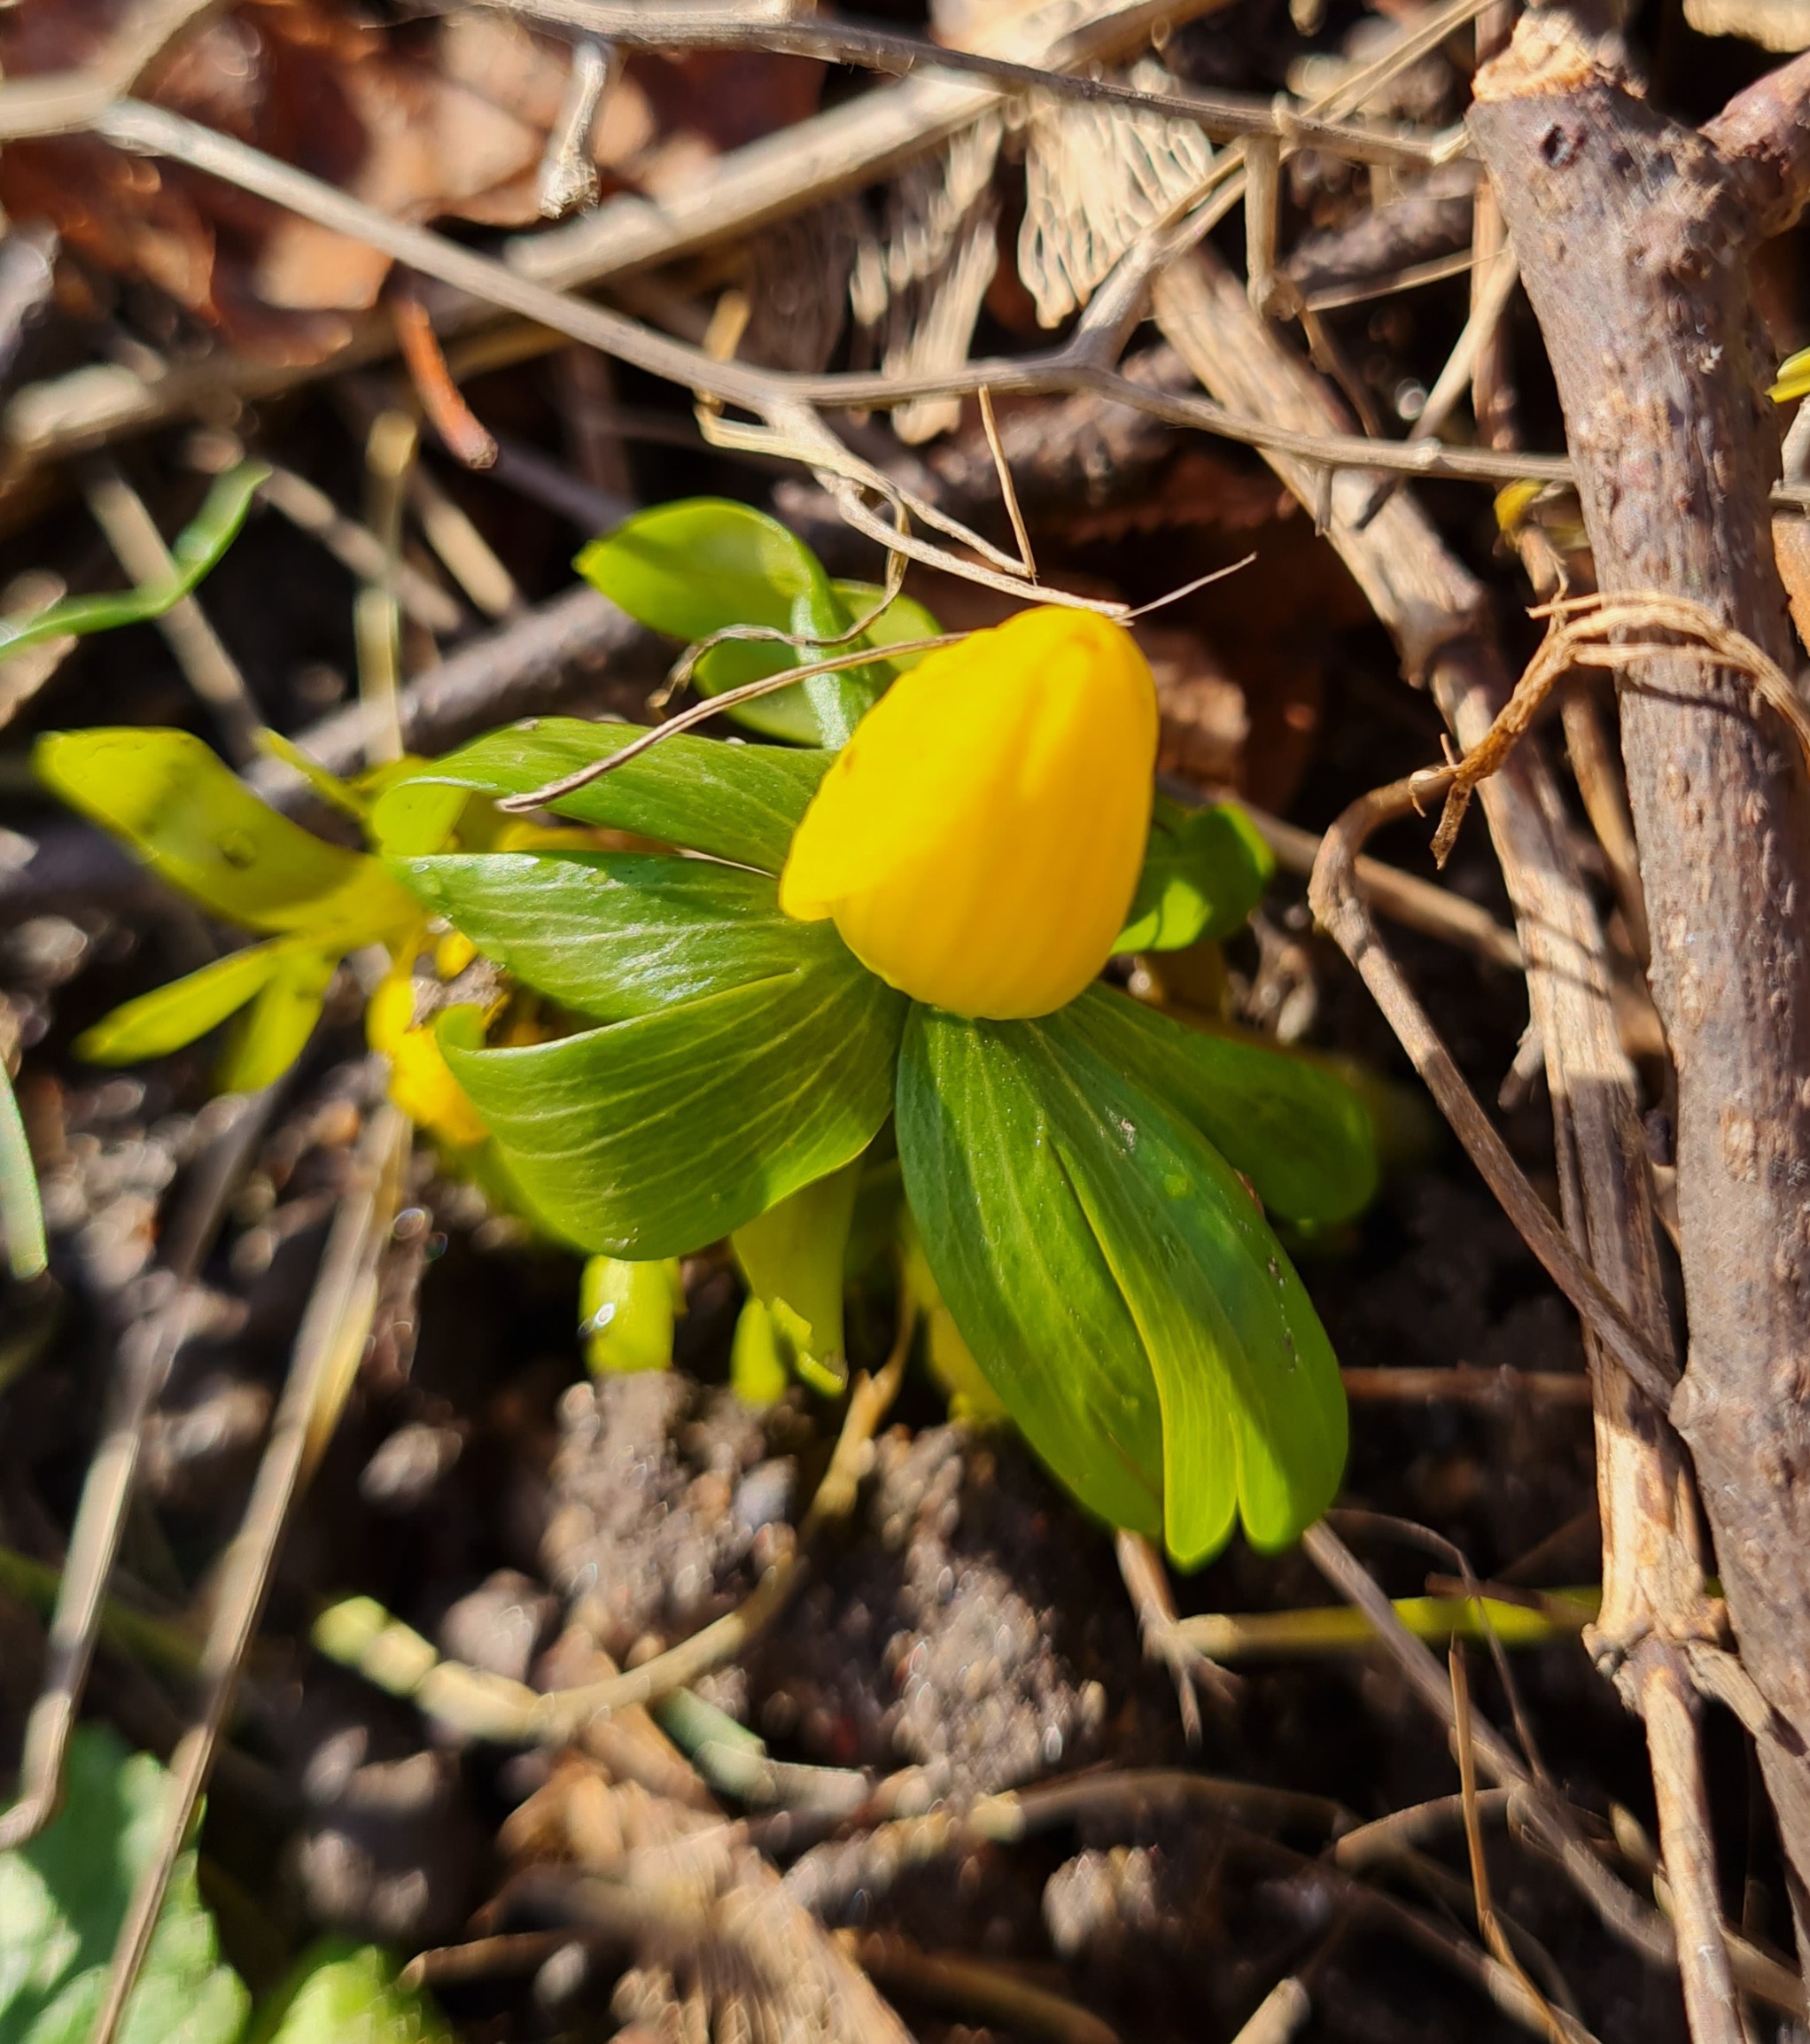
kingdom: Plantae
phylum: Tracheophyta
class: Magnoliopsida
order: Ranunculales
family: Ranunculaceae
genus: Eranthis
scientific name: Eranthis hyemalis
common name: Erantis
